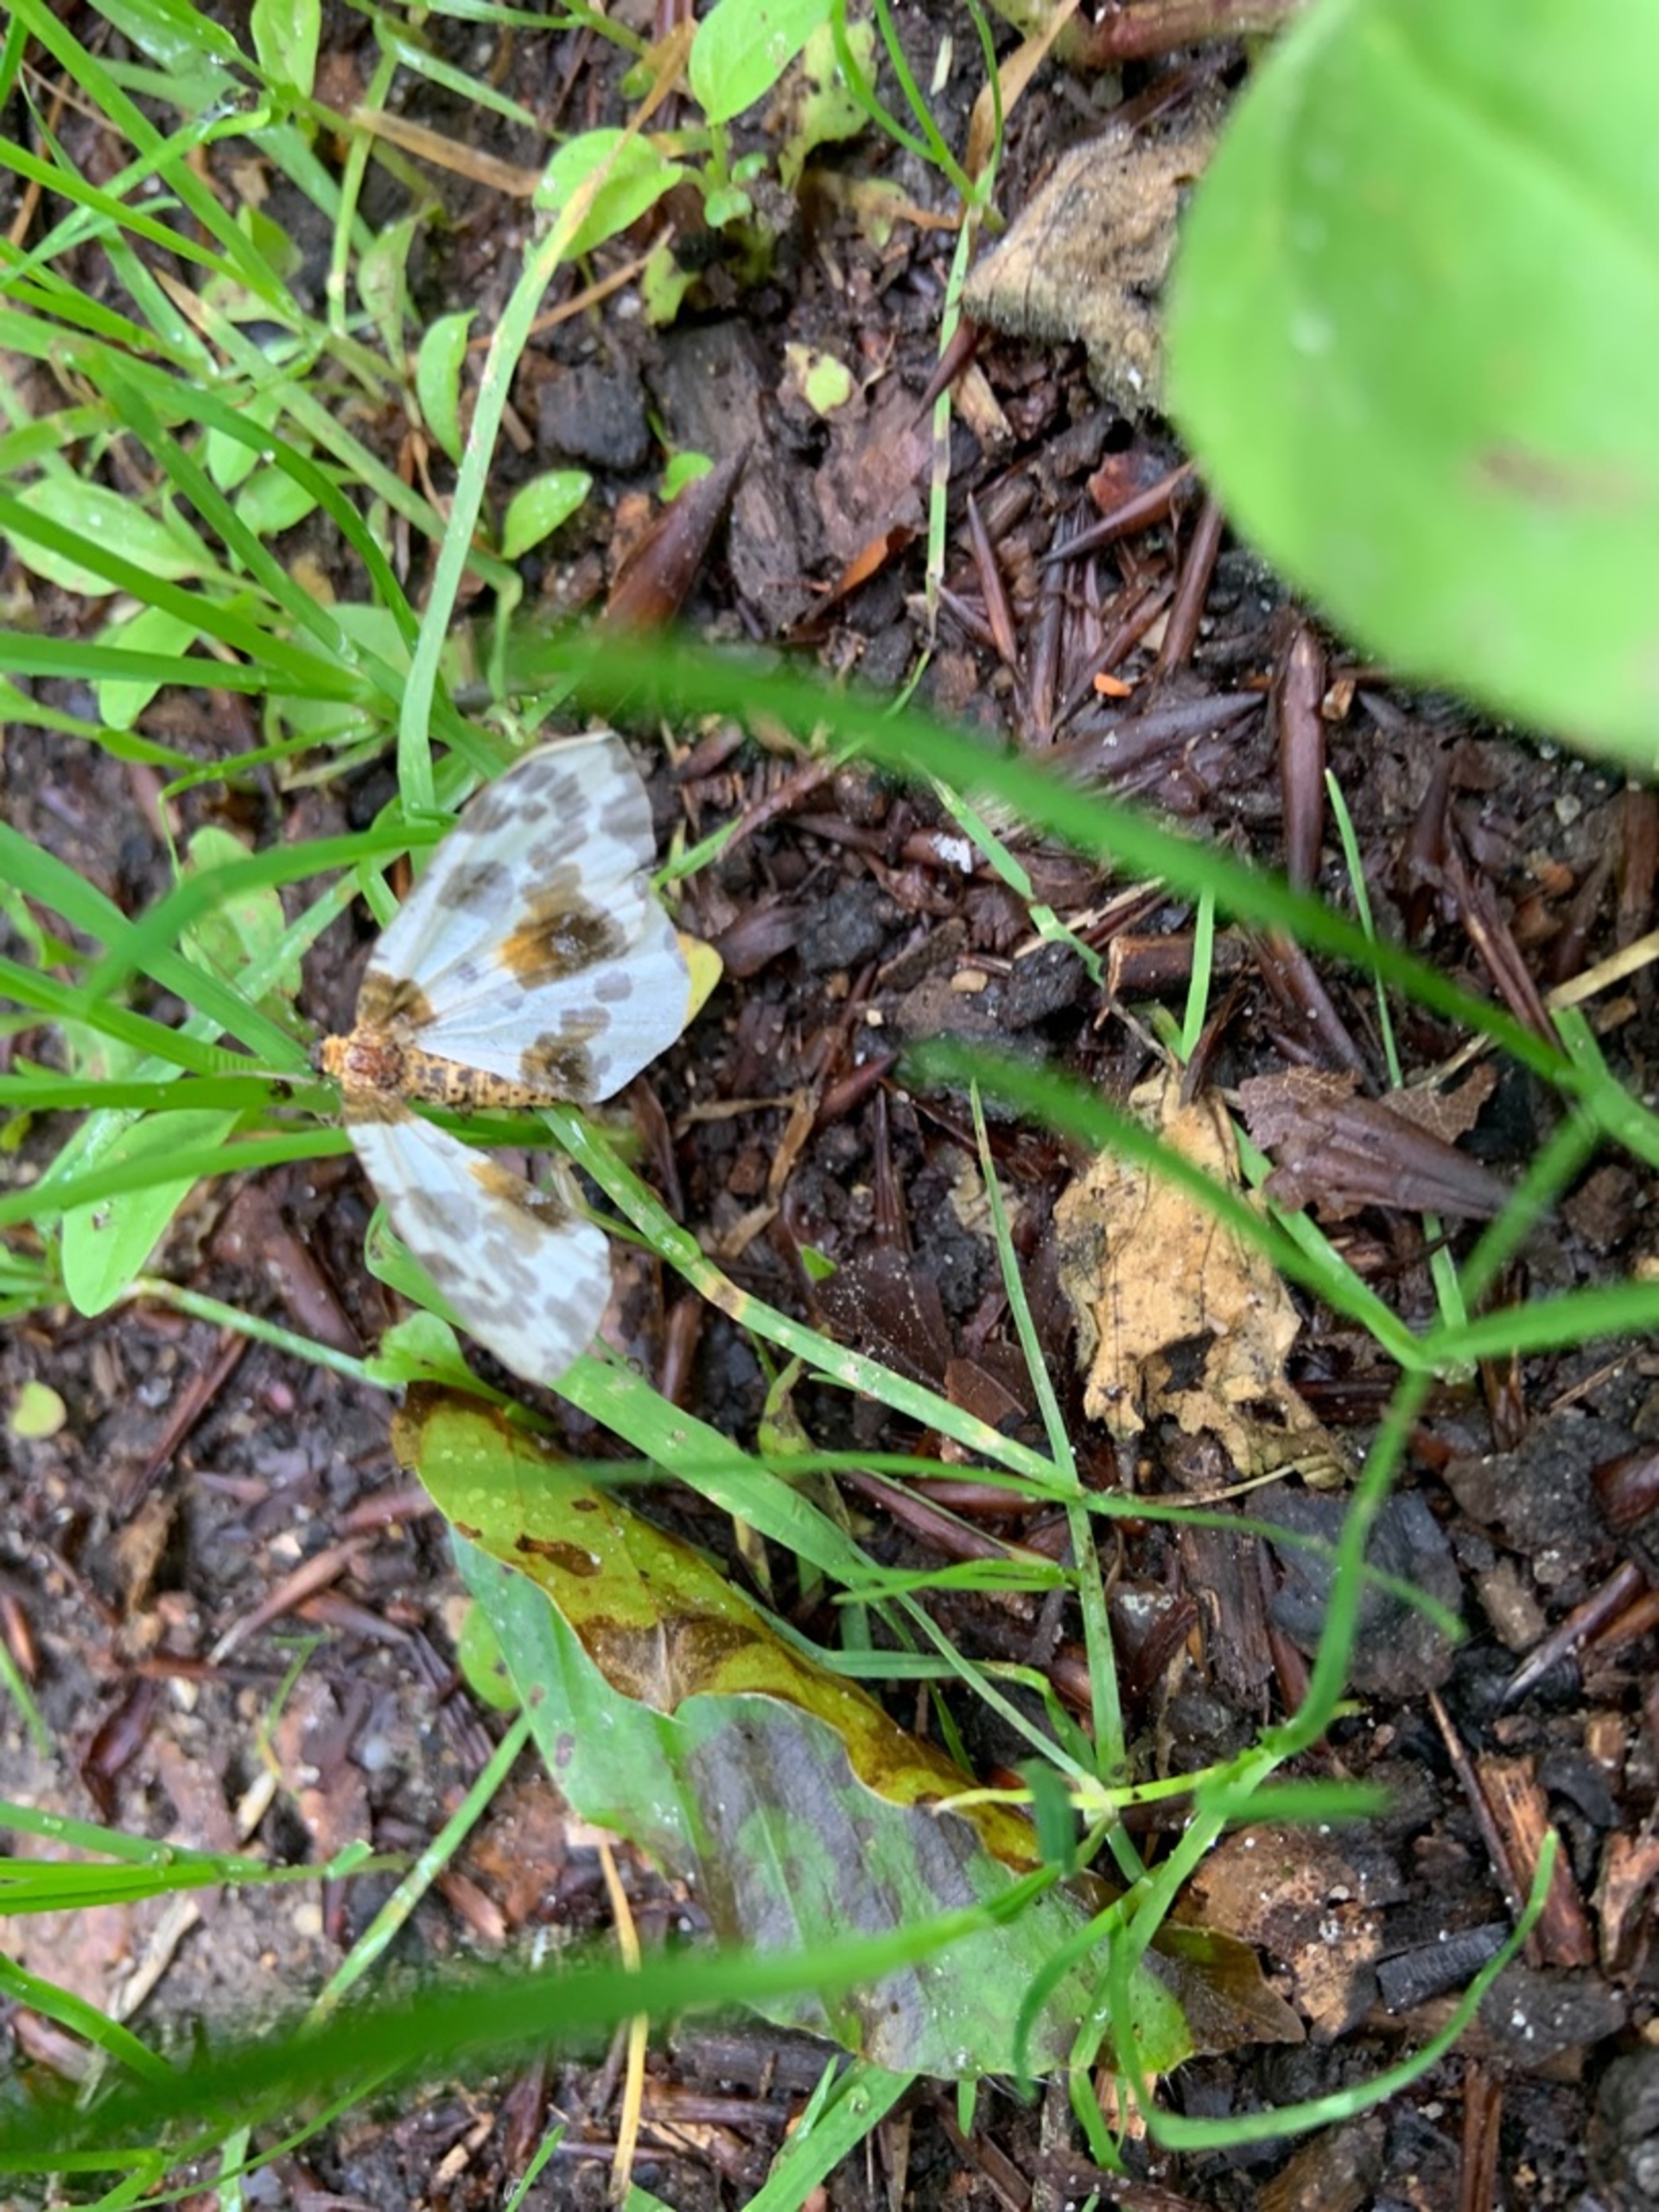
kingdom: Animalia
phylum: Arthropoda
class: Insecta
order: Lepidoptera
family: Geometridae
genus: Abraxas
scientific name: Abraxas sylvata
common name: Elmemåler
